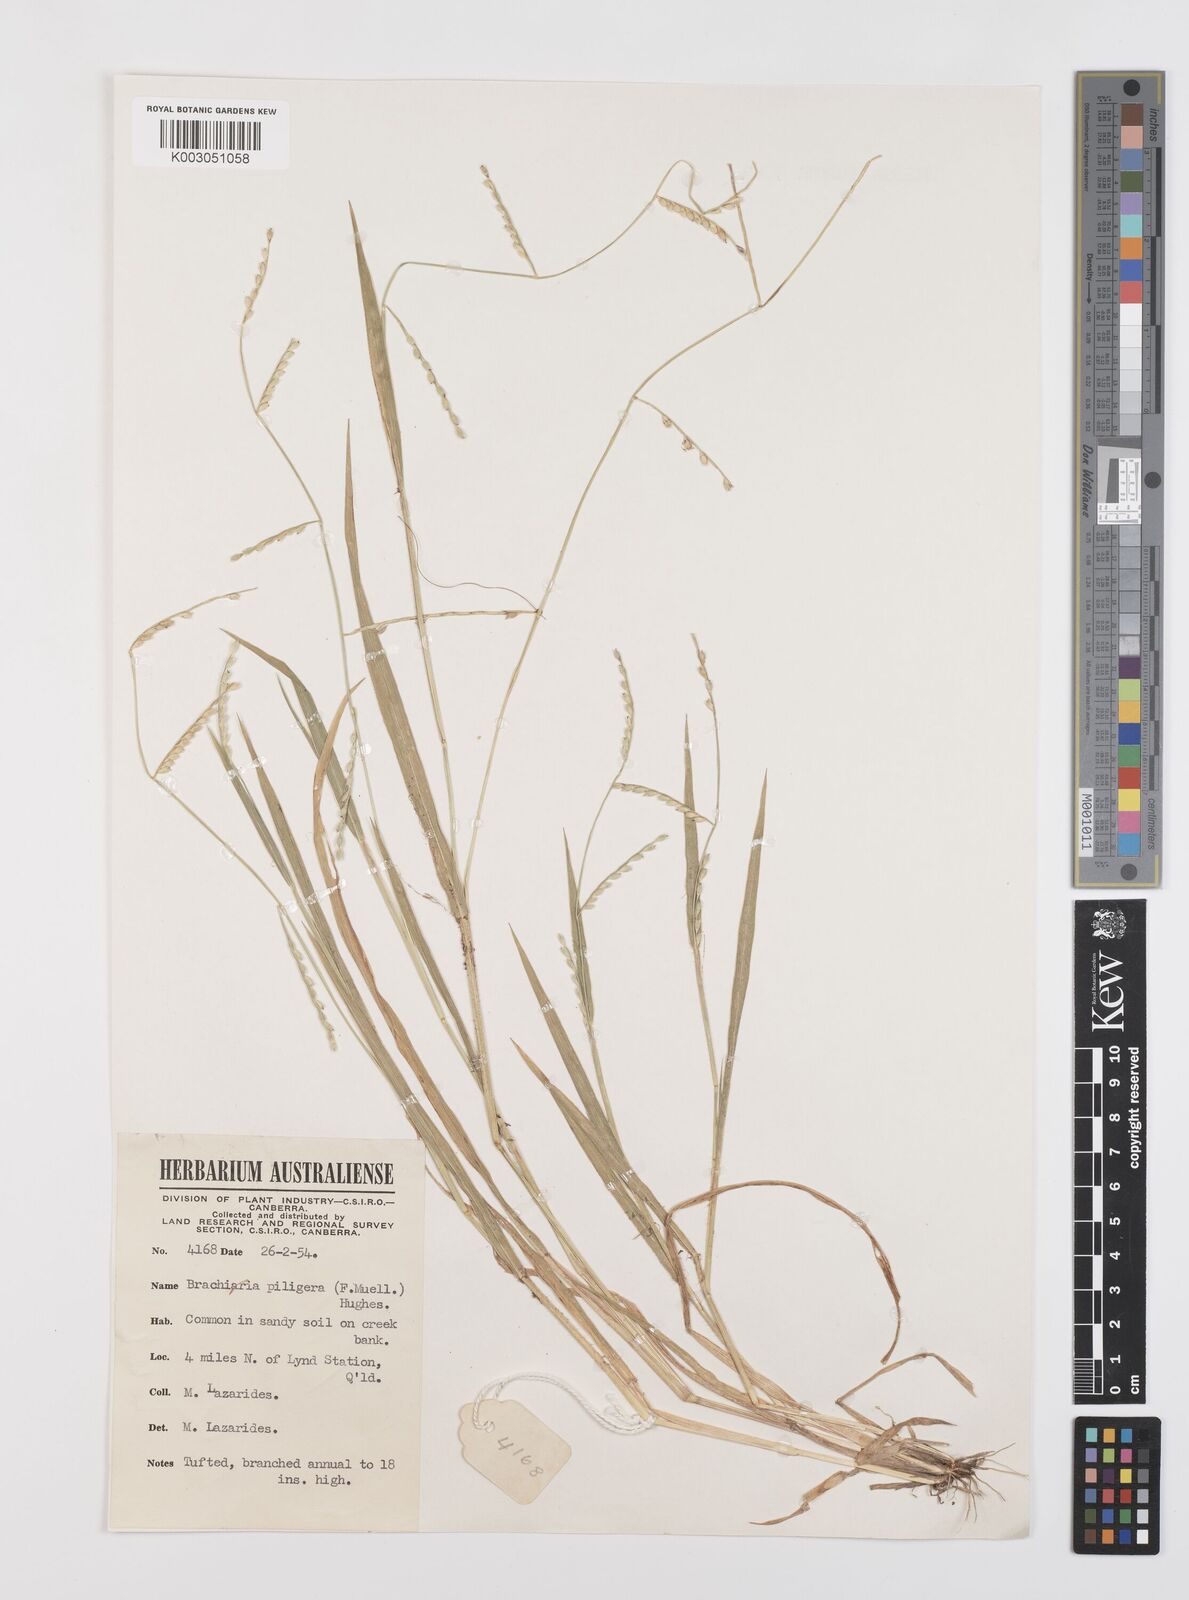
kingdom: Plantae
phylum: Tracheophyta
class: Liliopsida
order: Poales
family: Poaceae
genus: Urochloa
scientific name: Urochloa piligera
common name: Wattle signalgrass
